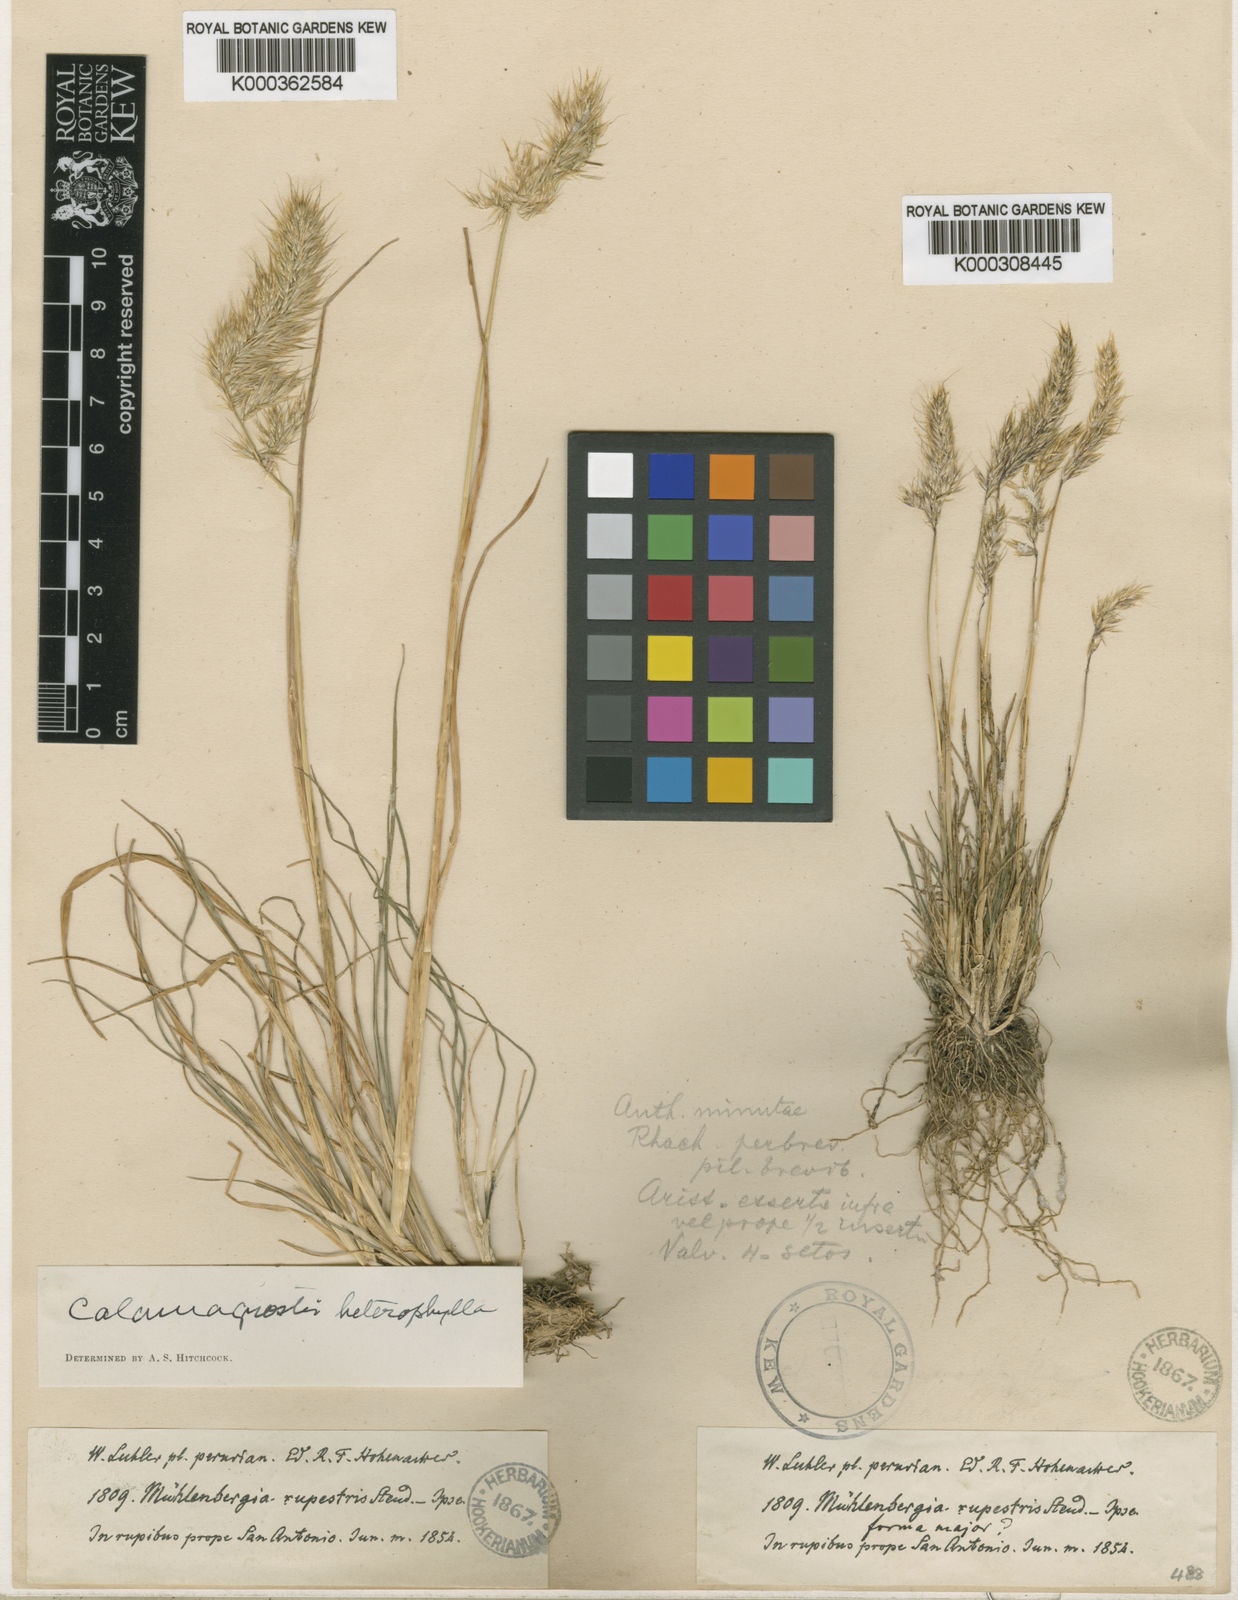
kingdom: Plantae
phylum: Tracheophyta
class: Liliopsida
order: Poales
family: Poaceae
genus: Cinnagrostis
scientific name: Cinnagrostis heterophylla
